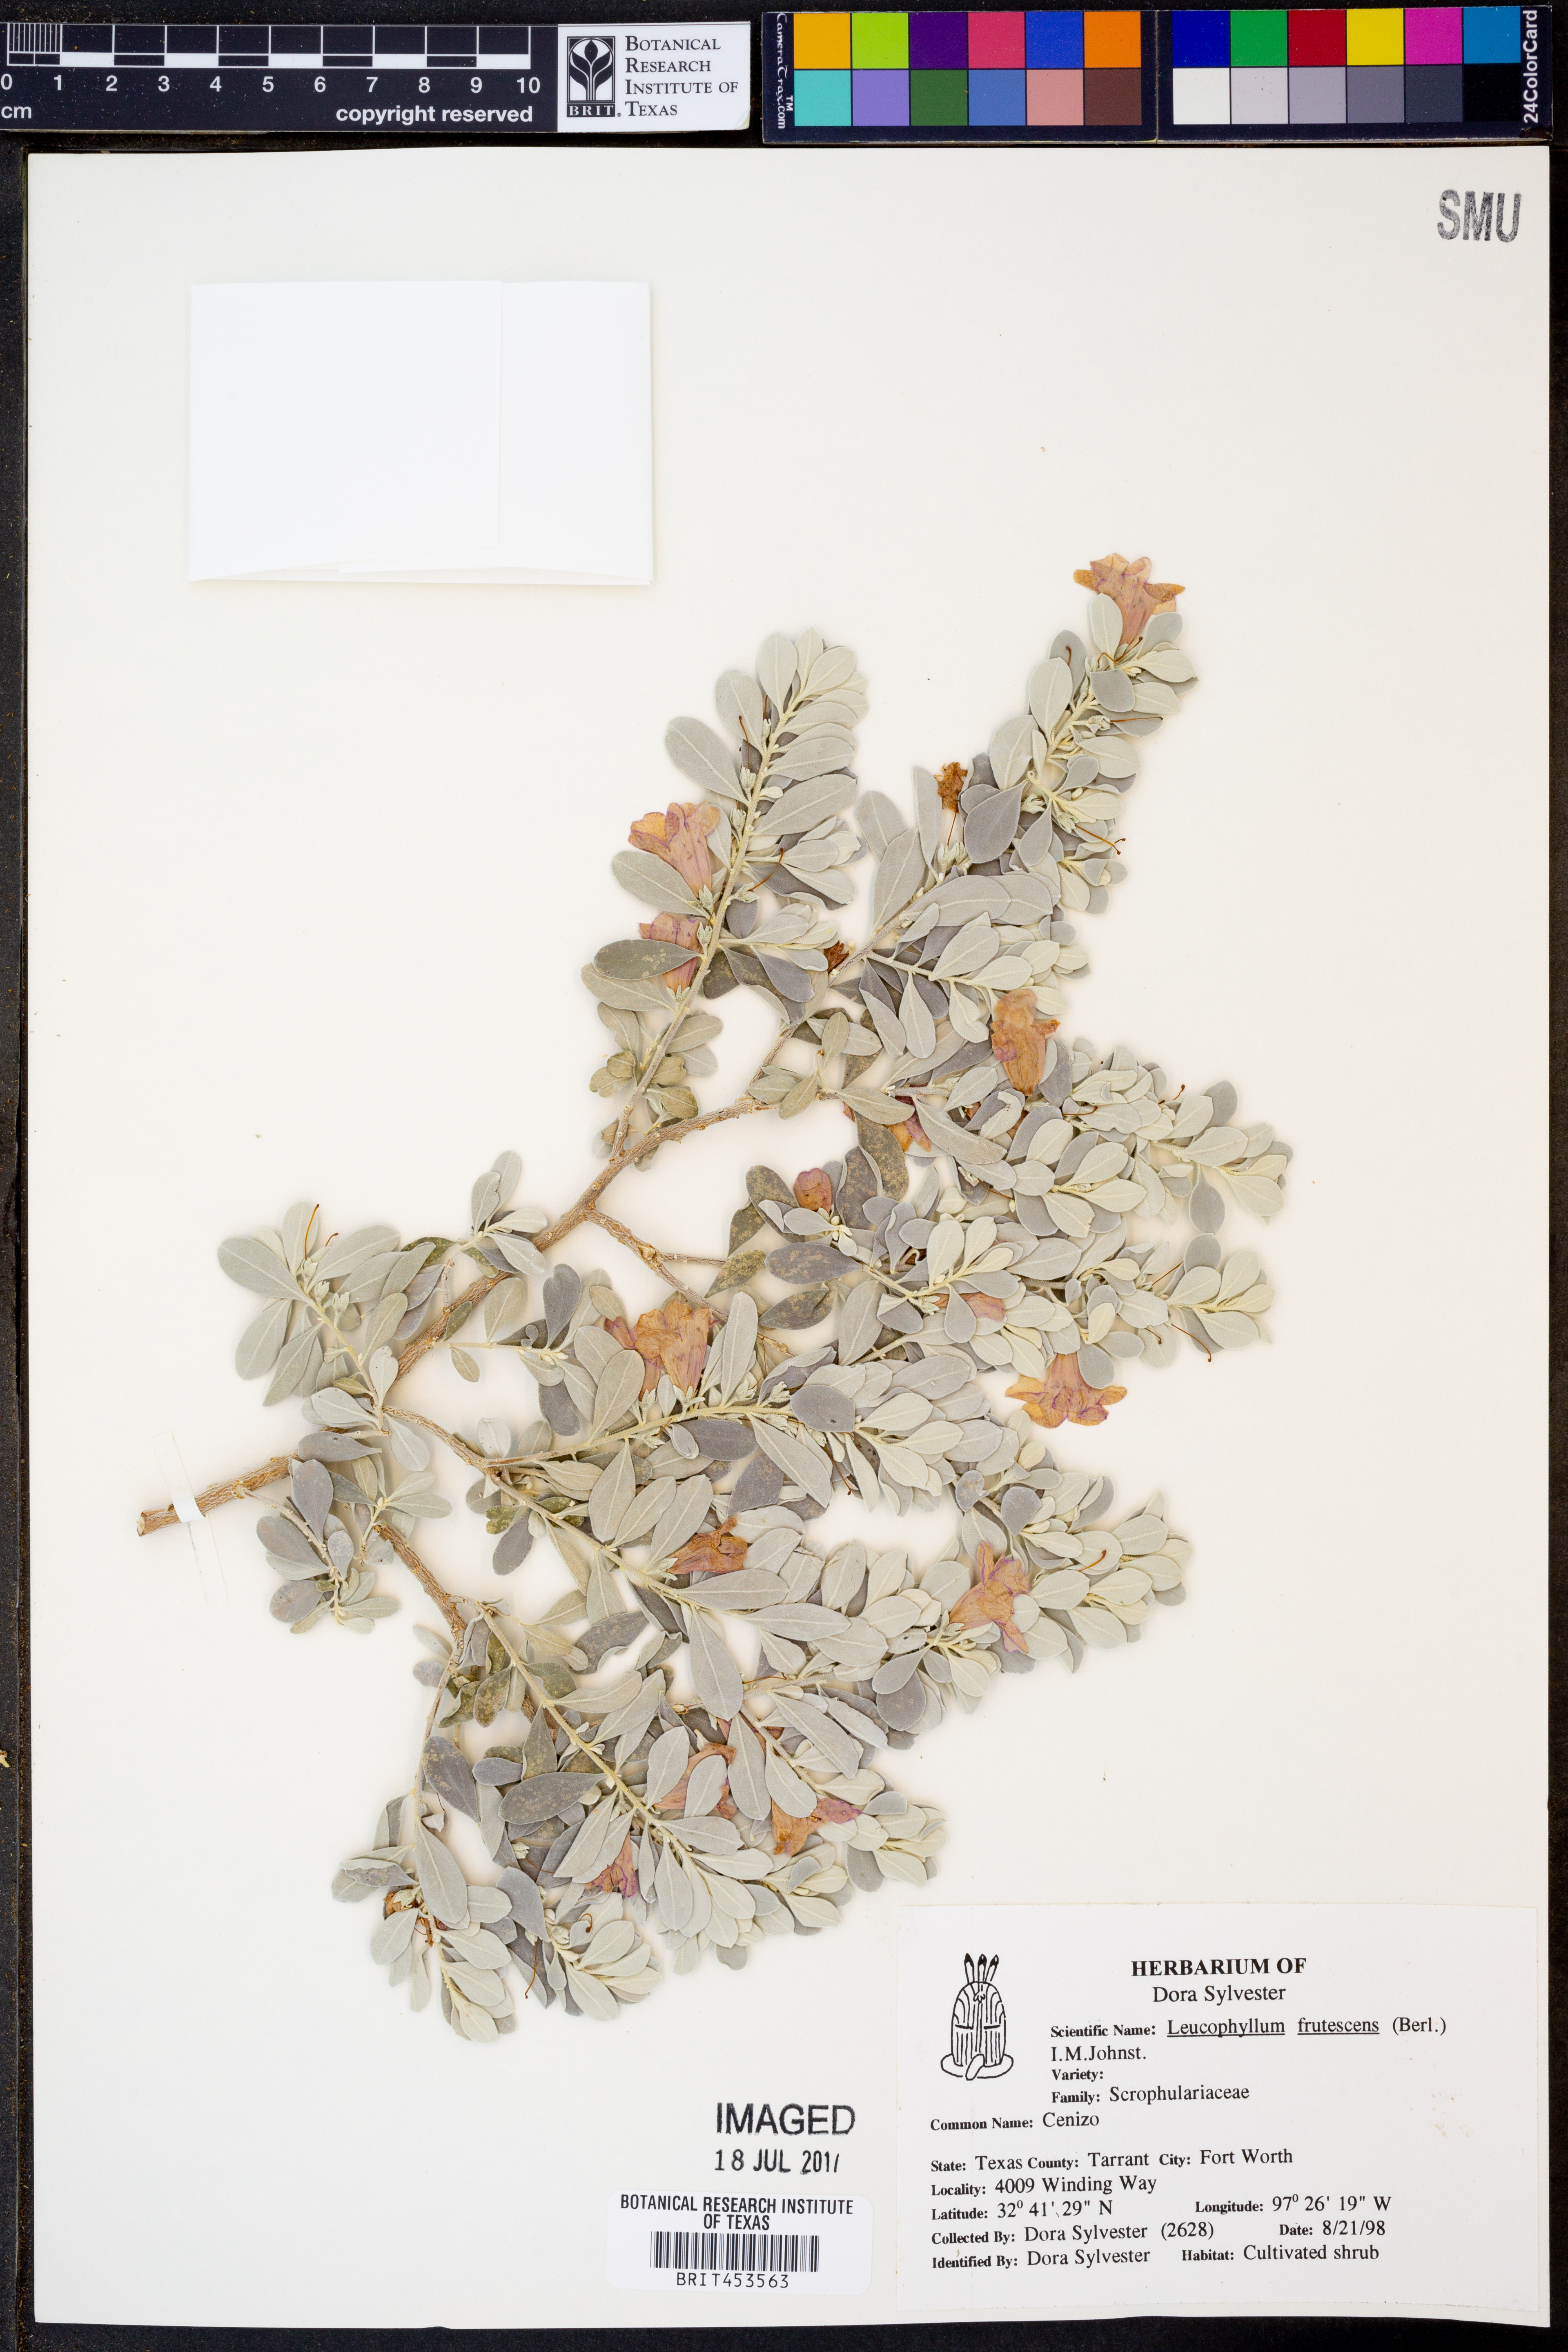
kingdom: Plantae
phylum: Tracheophyta
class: Magnoliopsida
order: Lamiales
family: Scrophulariaceae
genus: Leucophyllum
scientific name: Leucophyllum frutescens
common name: Texas silverleaf
